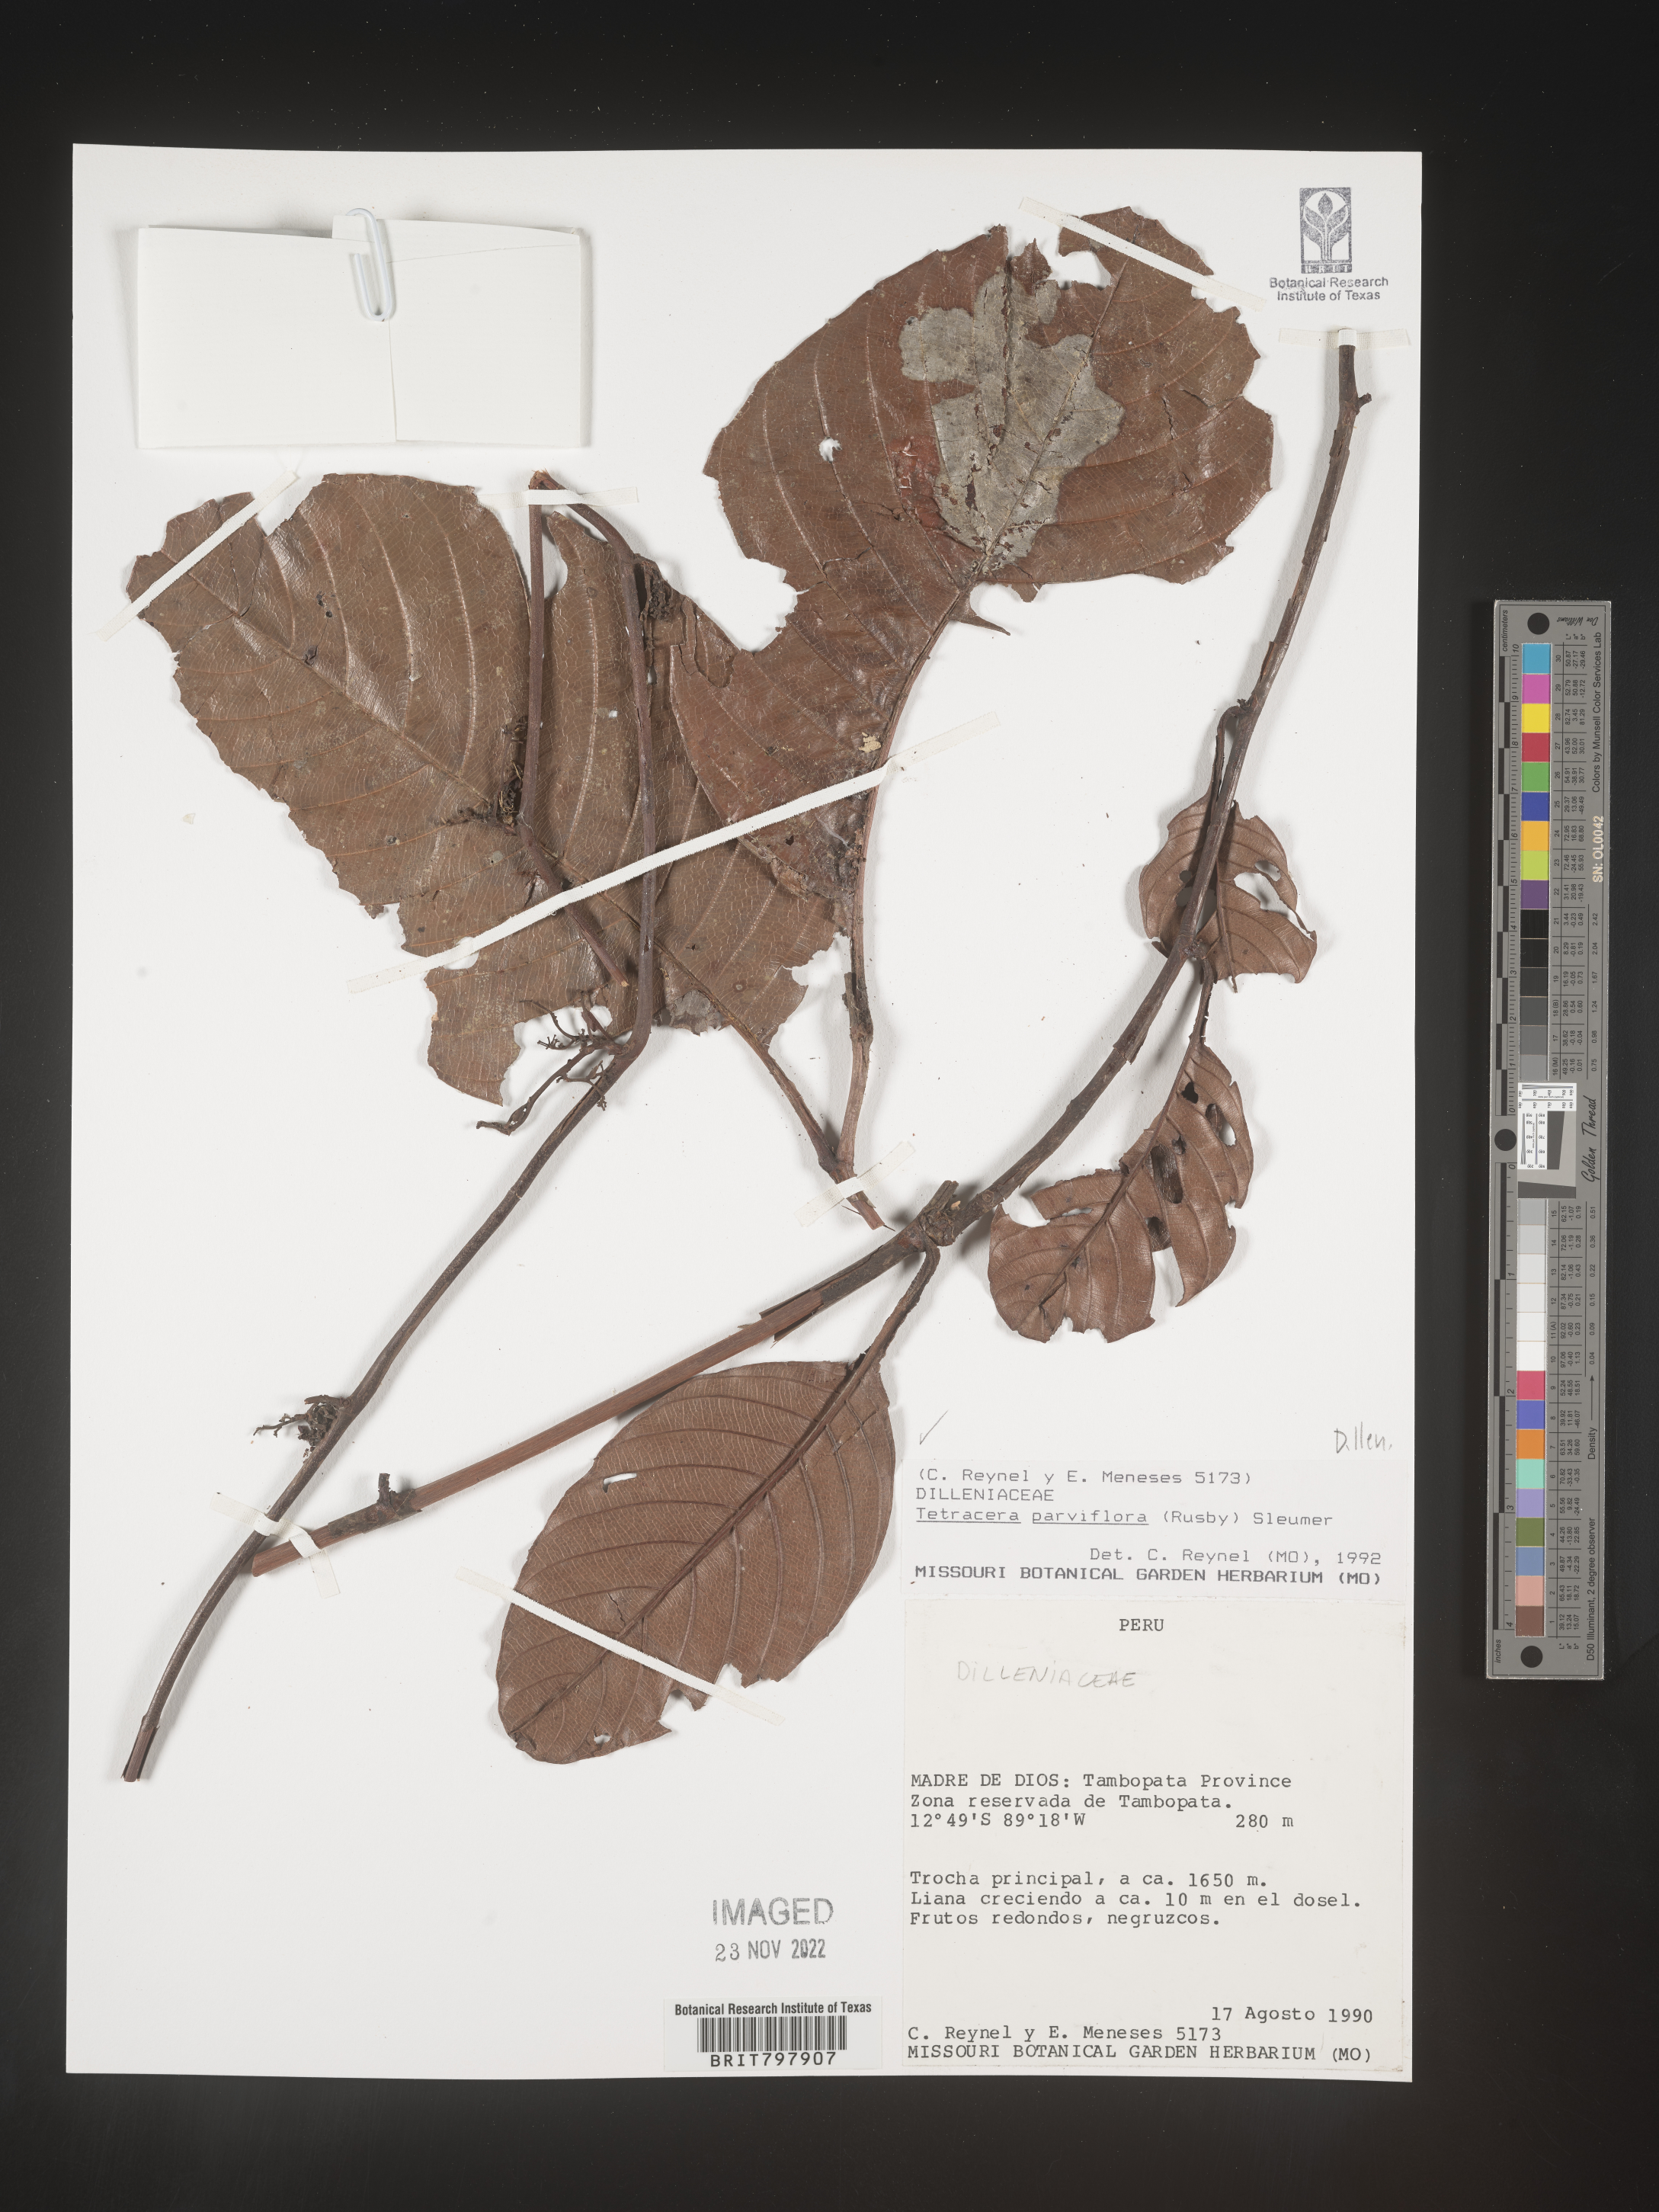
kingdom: Plantae
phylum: Tracheophyta
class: Magnoliopsida
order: Dilleniales
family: Dilleniaceae
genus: Curatella
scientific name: Curatella
